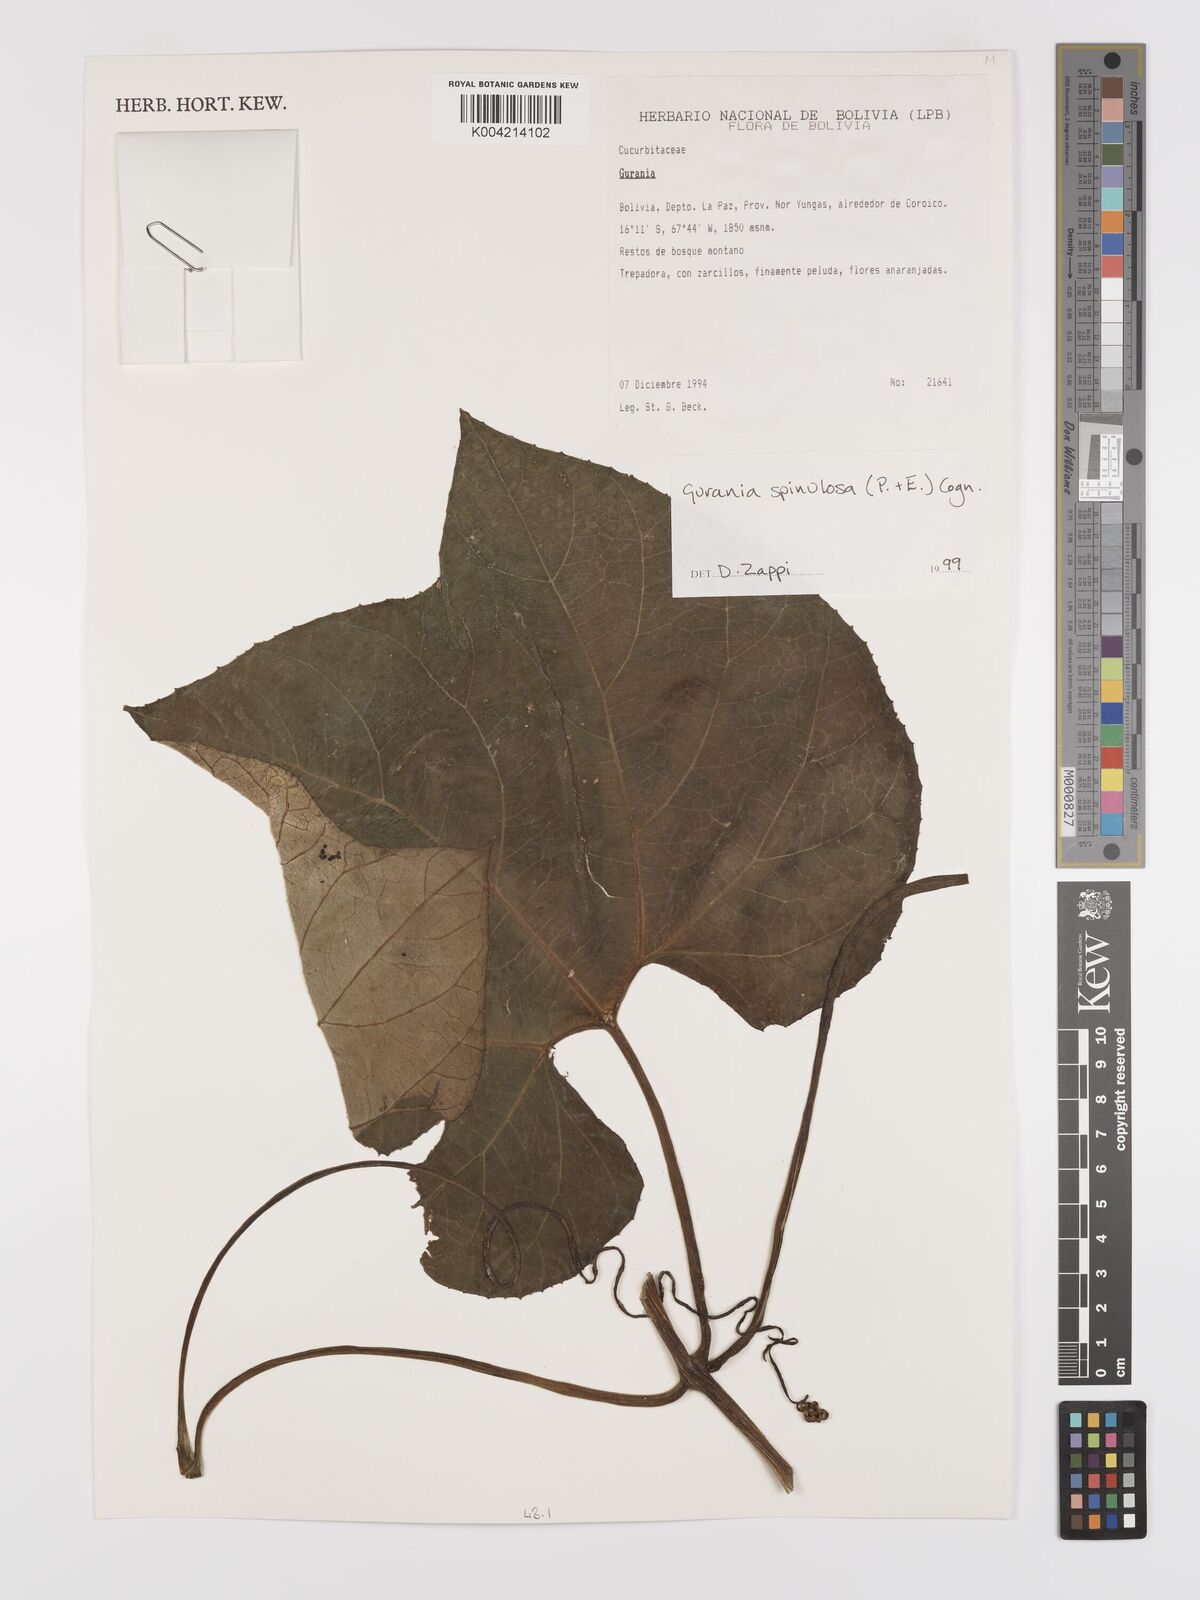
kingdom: Plantae
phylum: Tracheophyta
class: Magnoliopsida
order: Cucurbitales
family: Cucurbitaceae
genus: Gurania
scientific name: Gurania lobata
